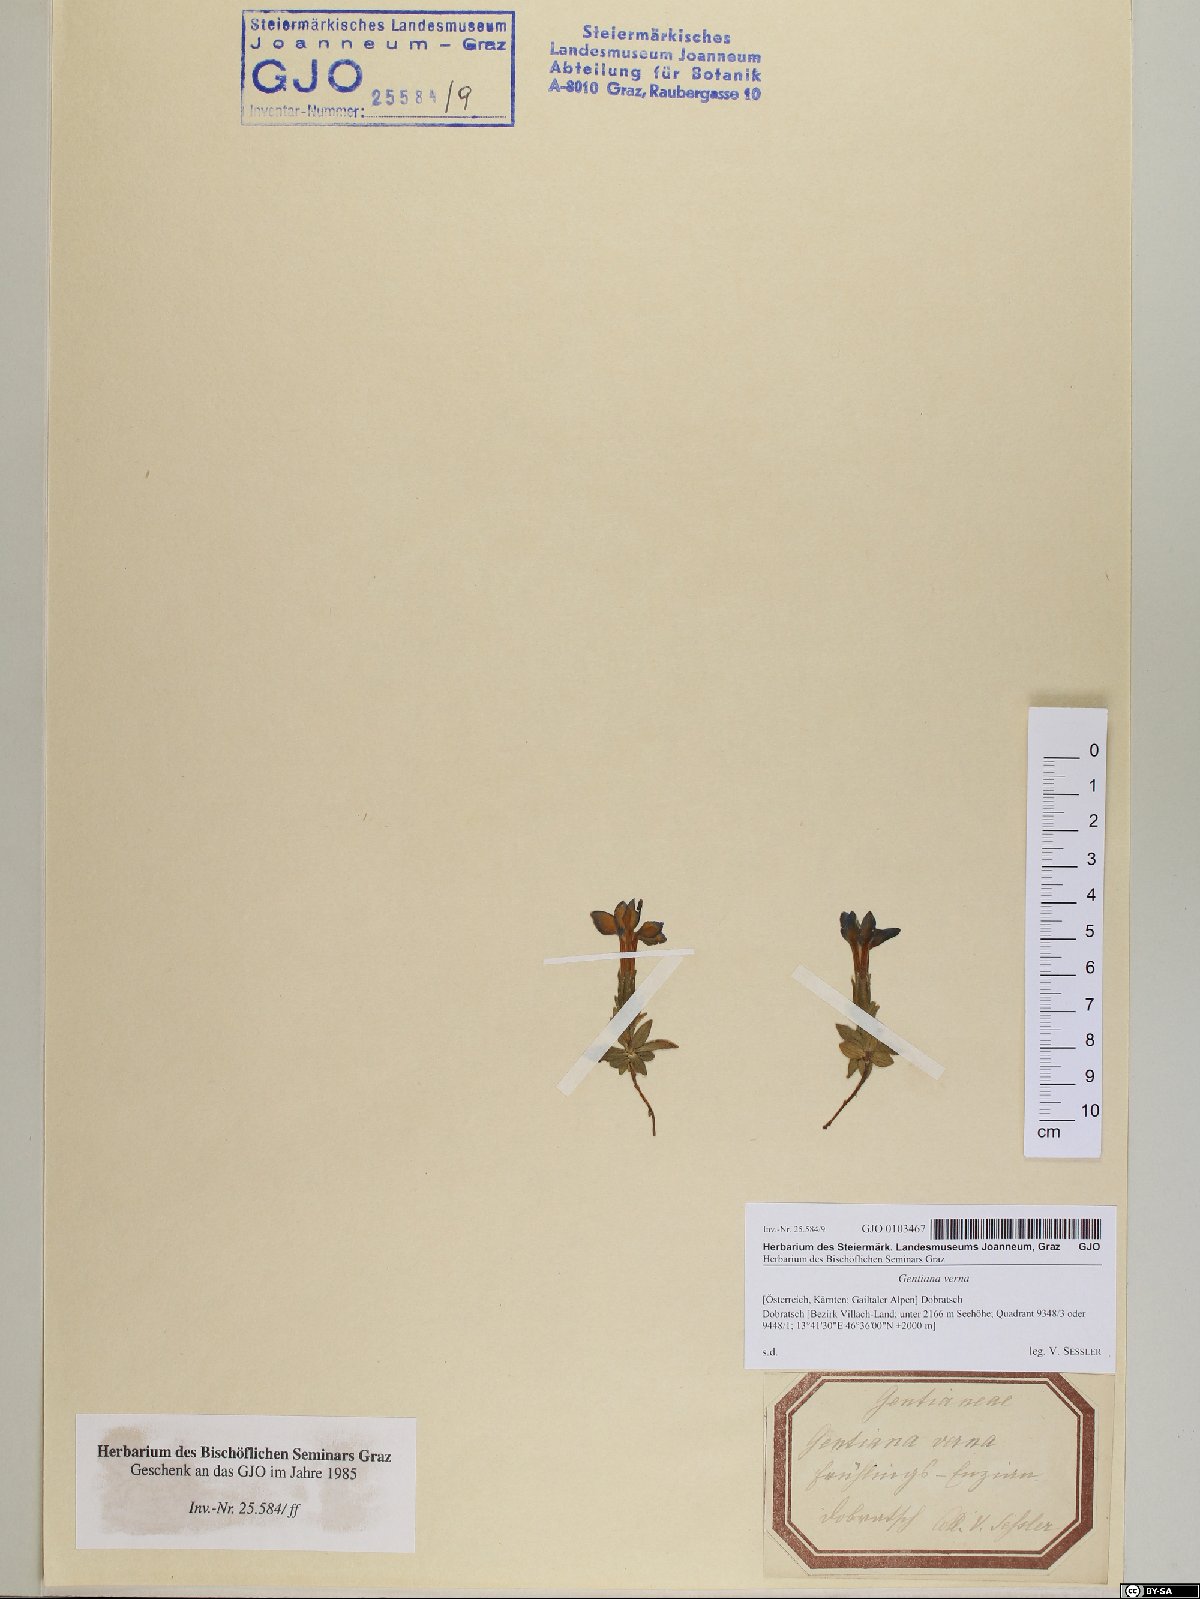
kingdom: Plantae
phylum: Tracheophyta
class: Magnoliopsida
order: Gentianales
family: Gentianaceae
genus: Gentiana
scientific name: Gentiana verna
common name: Spring gentian
